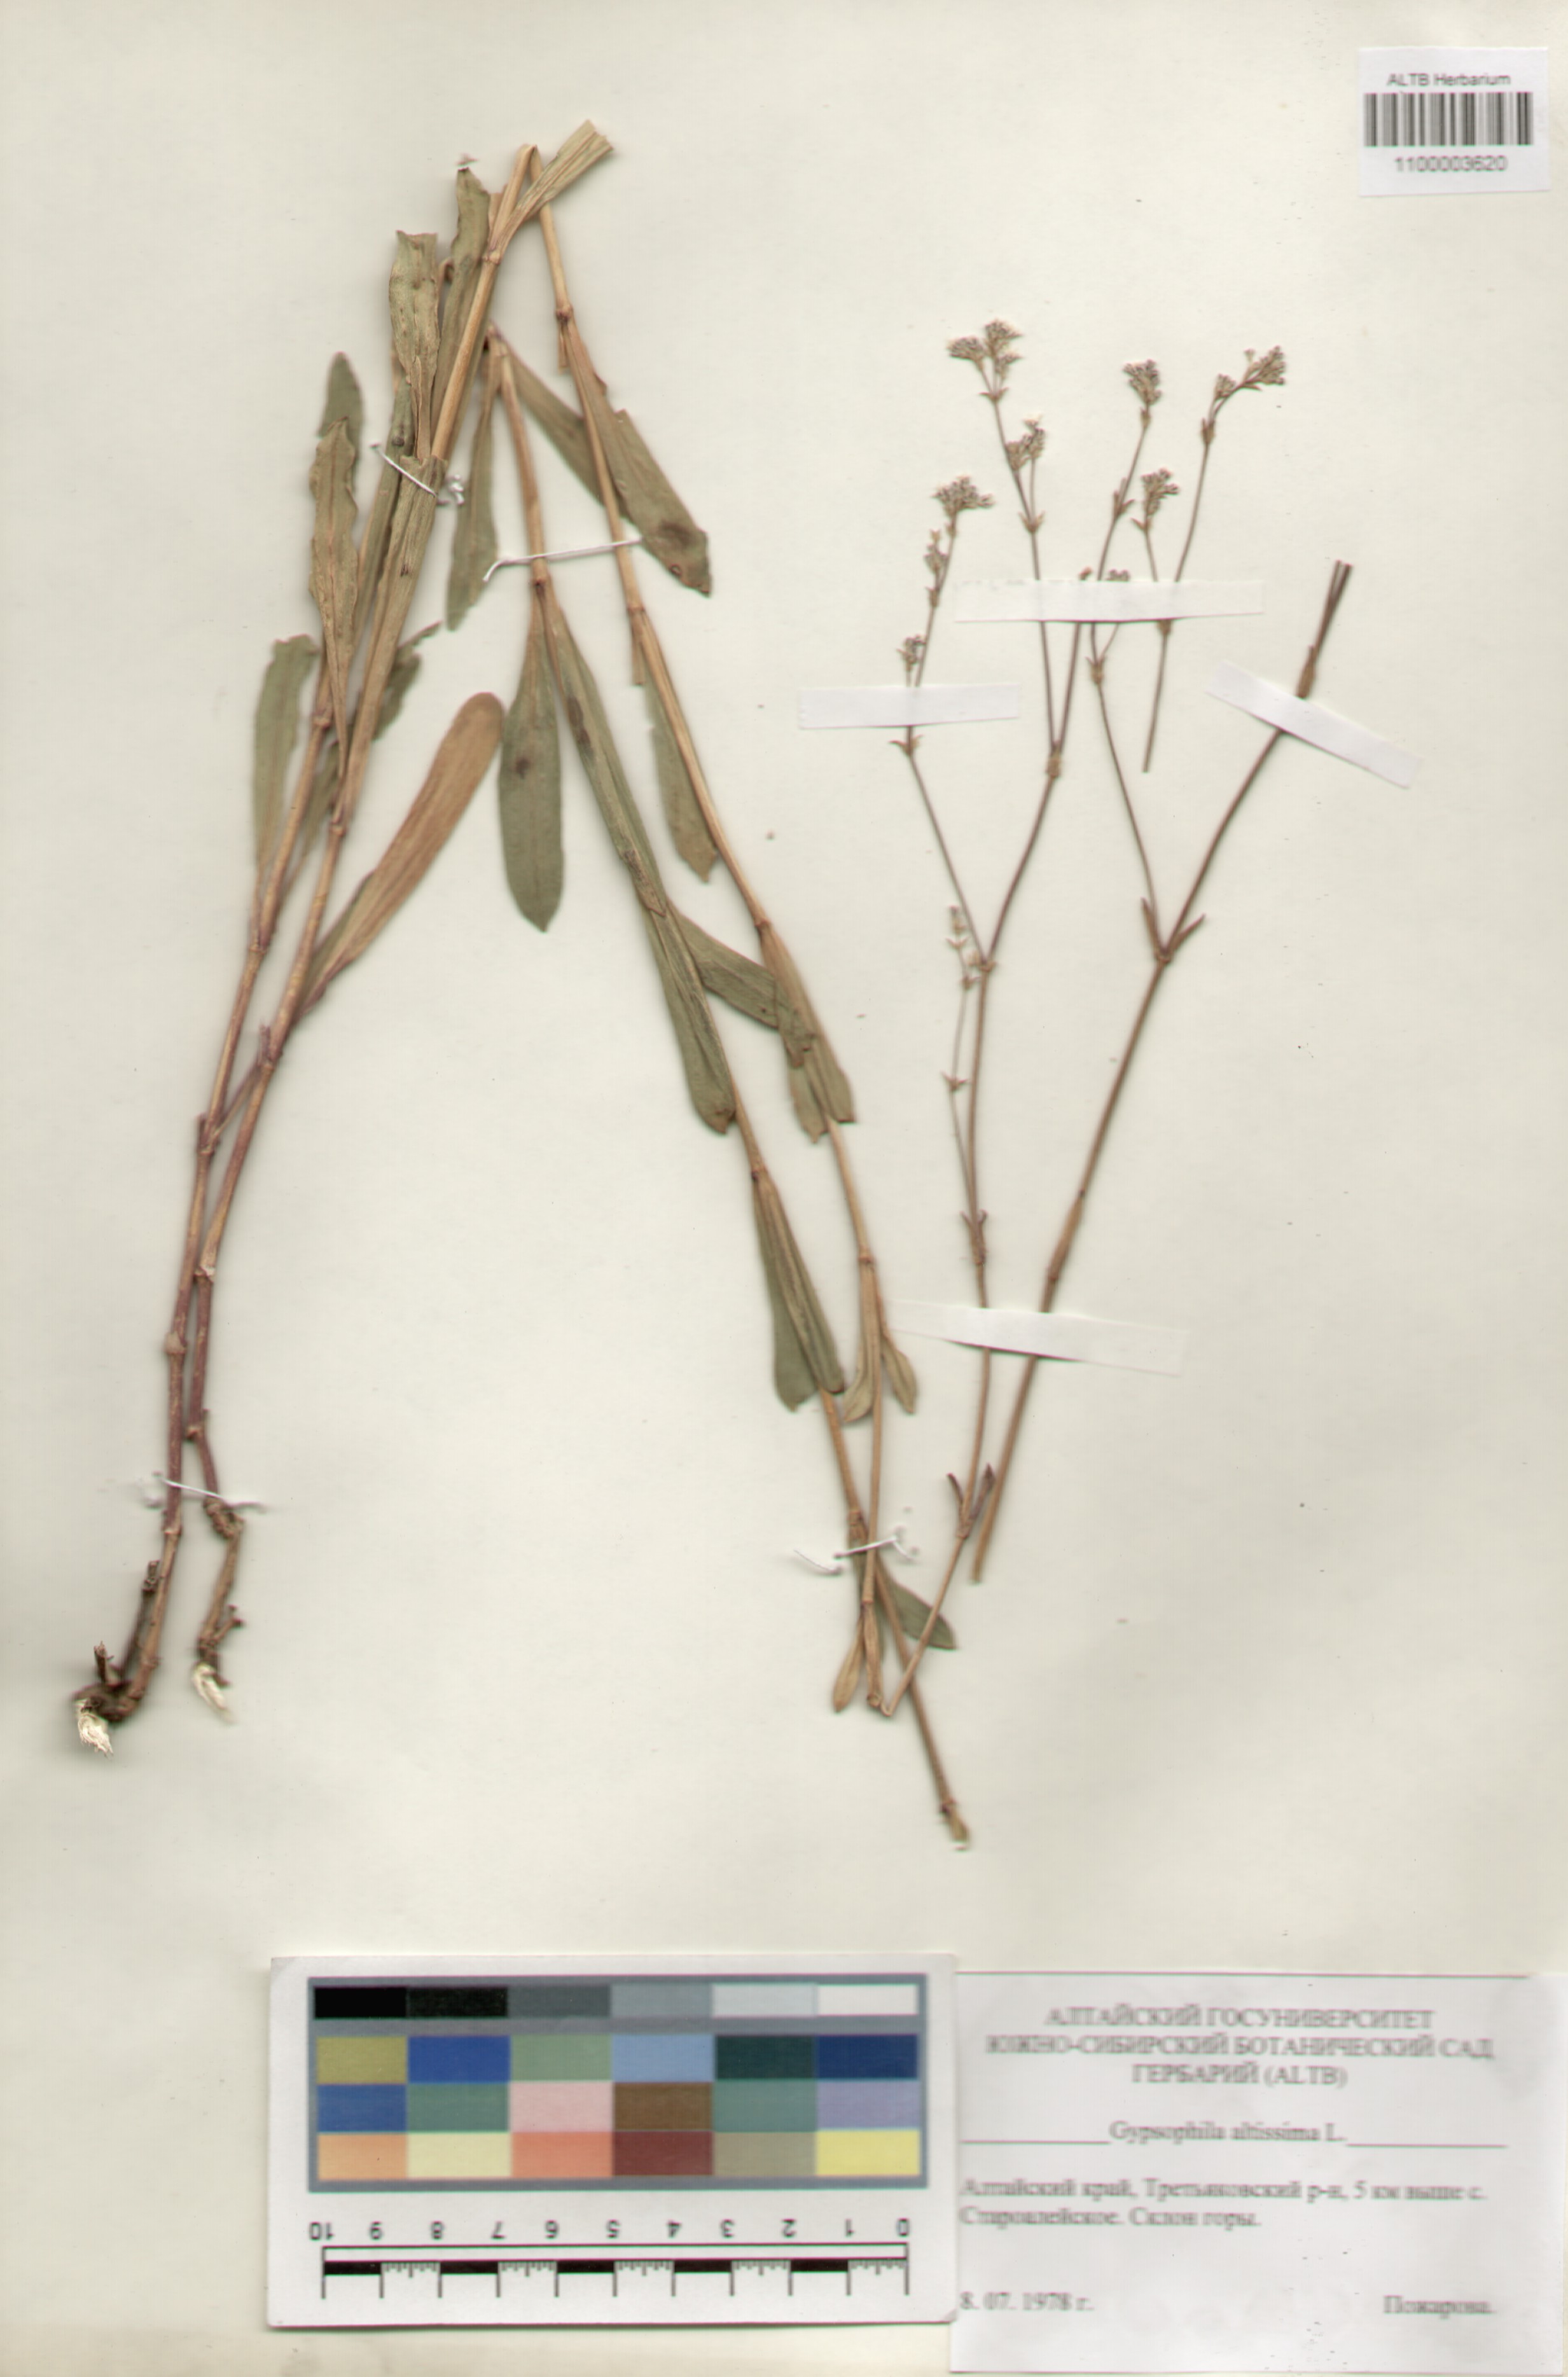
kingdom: Plantae
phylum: Tracheophyta
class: Magnoliopsida
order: Caryophyllales
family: Caryophyllaceae
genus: Gypsophila
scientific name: Gypsophila altissima
